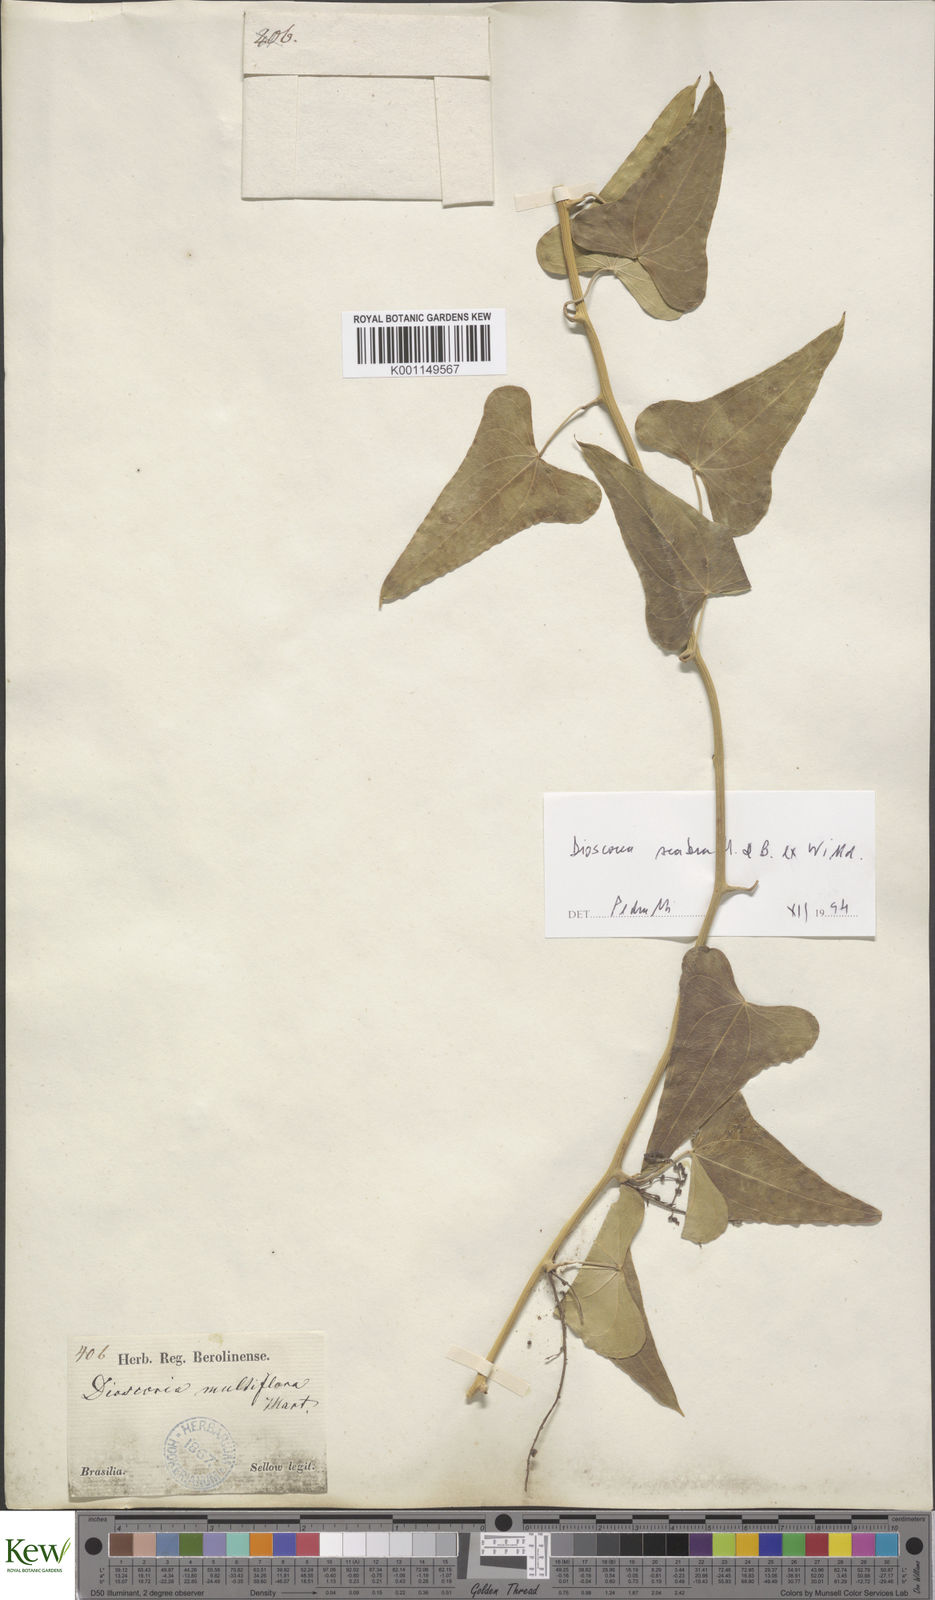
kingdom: Plantae
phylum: Tracheophyta
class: Liliopsida
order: Dioscoreales
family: Dioscoreaceae
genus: Dioscorea
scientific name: Dioscorea multiflora
